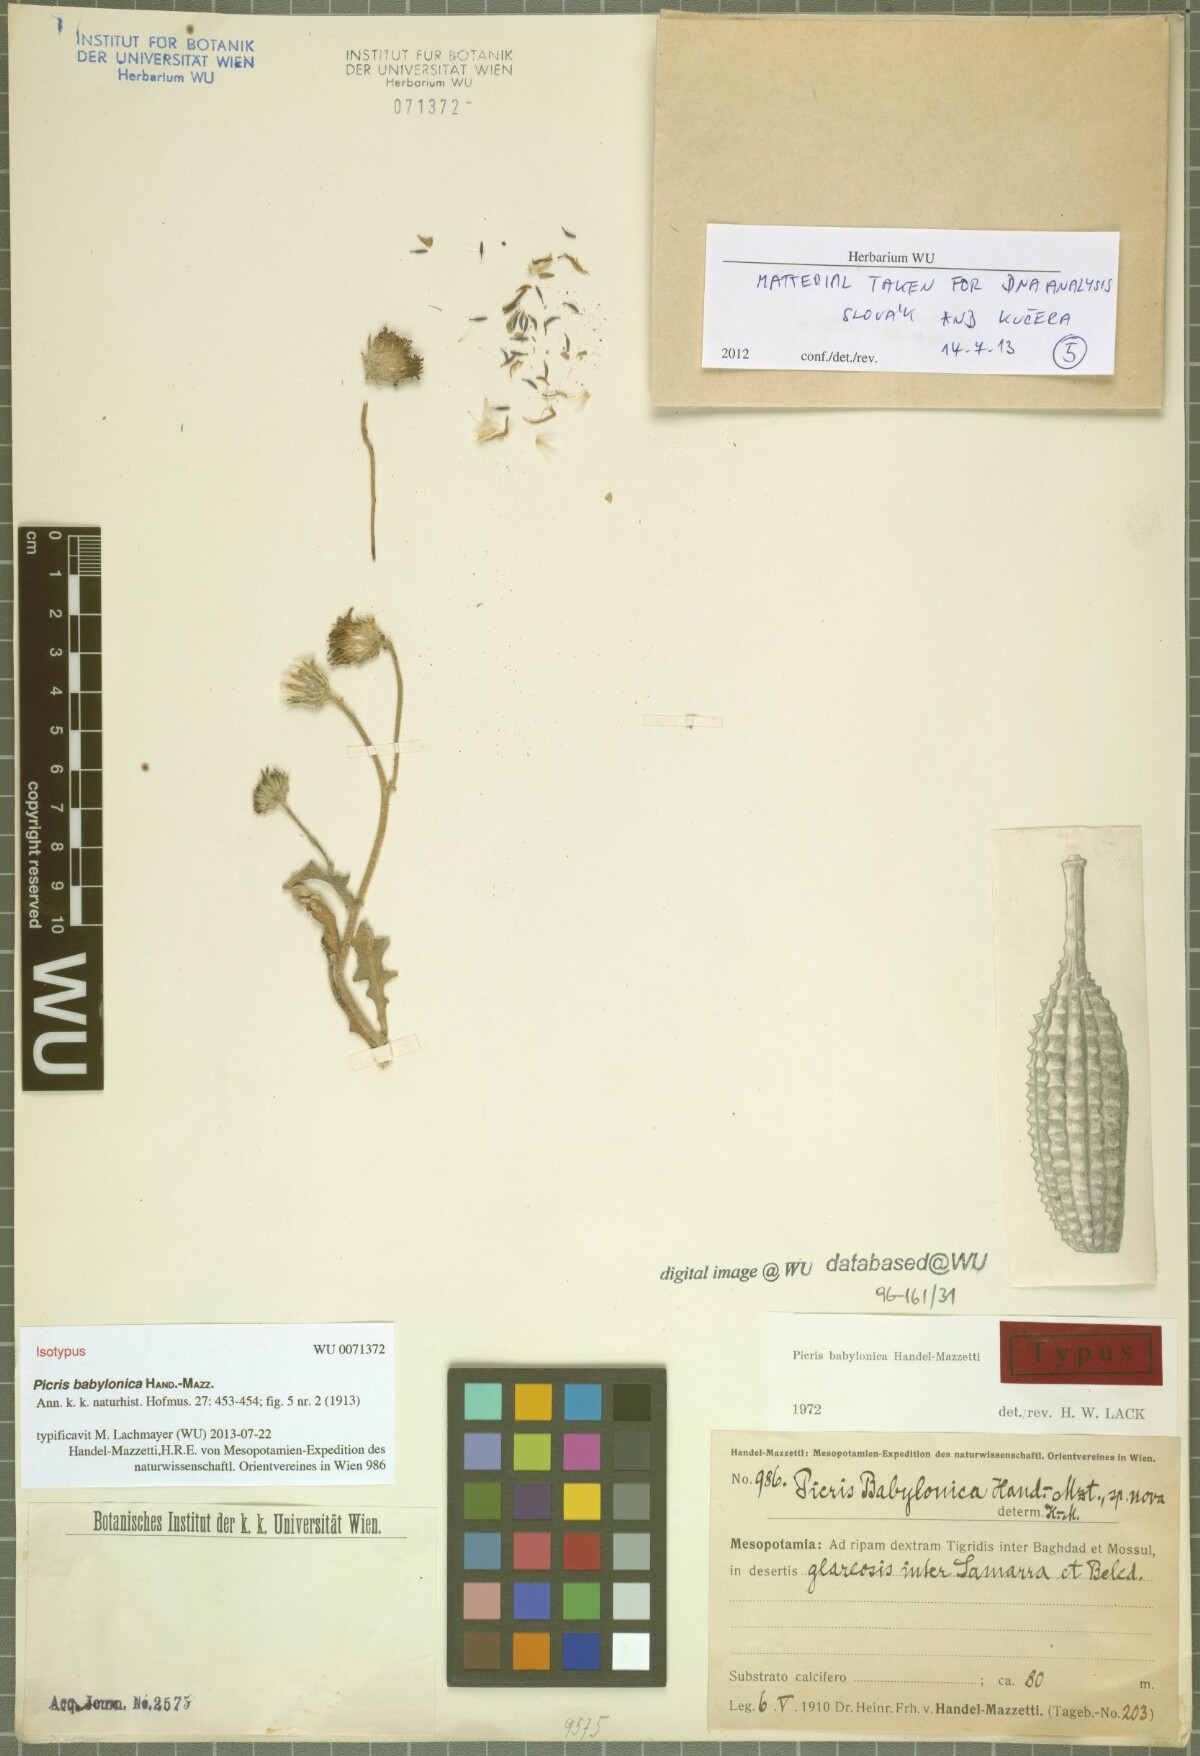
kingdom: Plantae
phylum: Tracheophyta
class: Magnoliopsida
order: Asterales
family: Asteraceae
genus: Picris
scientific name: Picris babylonica
